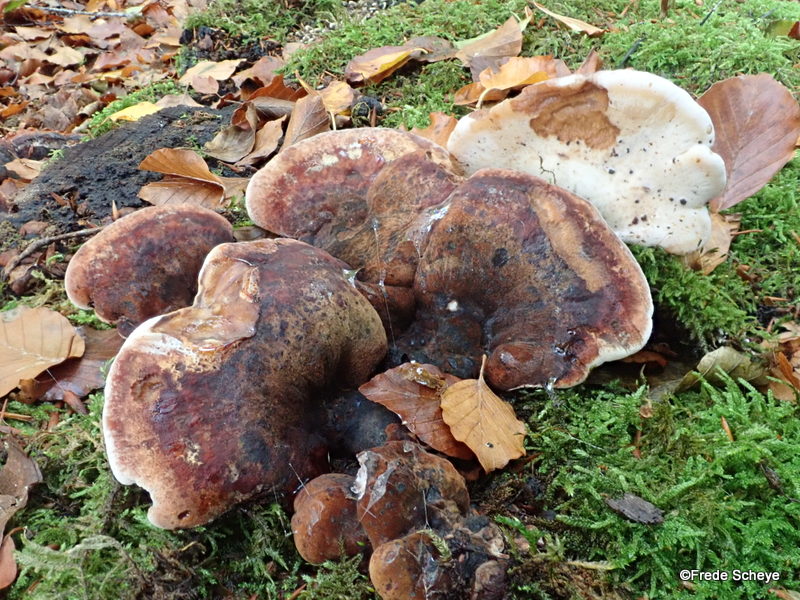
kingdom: Fungi
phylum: Basidiomycota
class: Agaricomycetes
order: Polyporales
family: Ischnodermataceae
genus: Ischnoderma
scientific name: Ischnoderma resinosum
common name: løv-tjæreporesvamp
